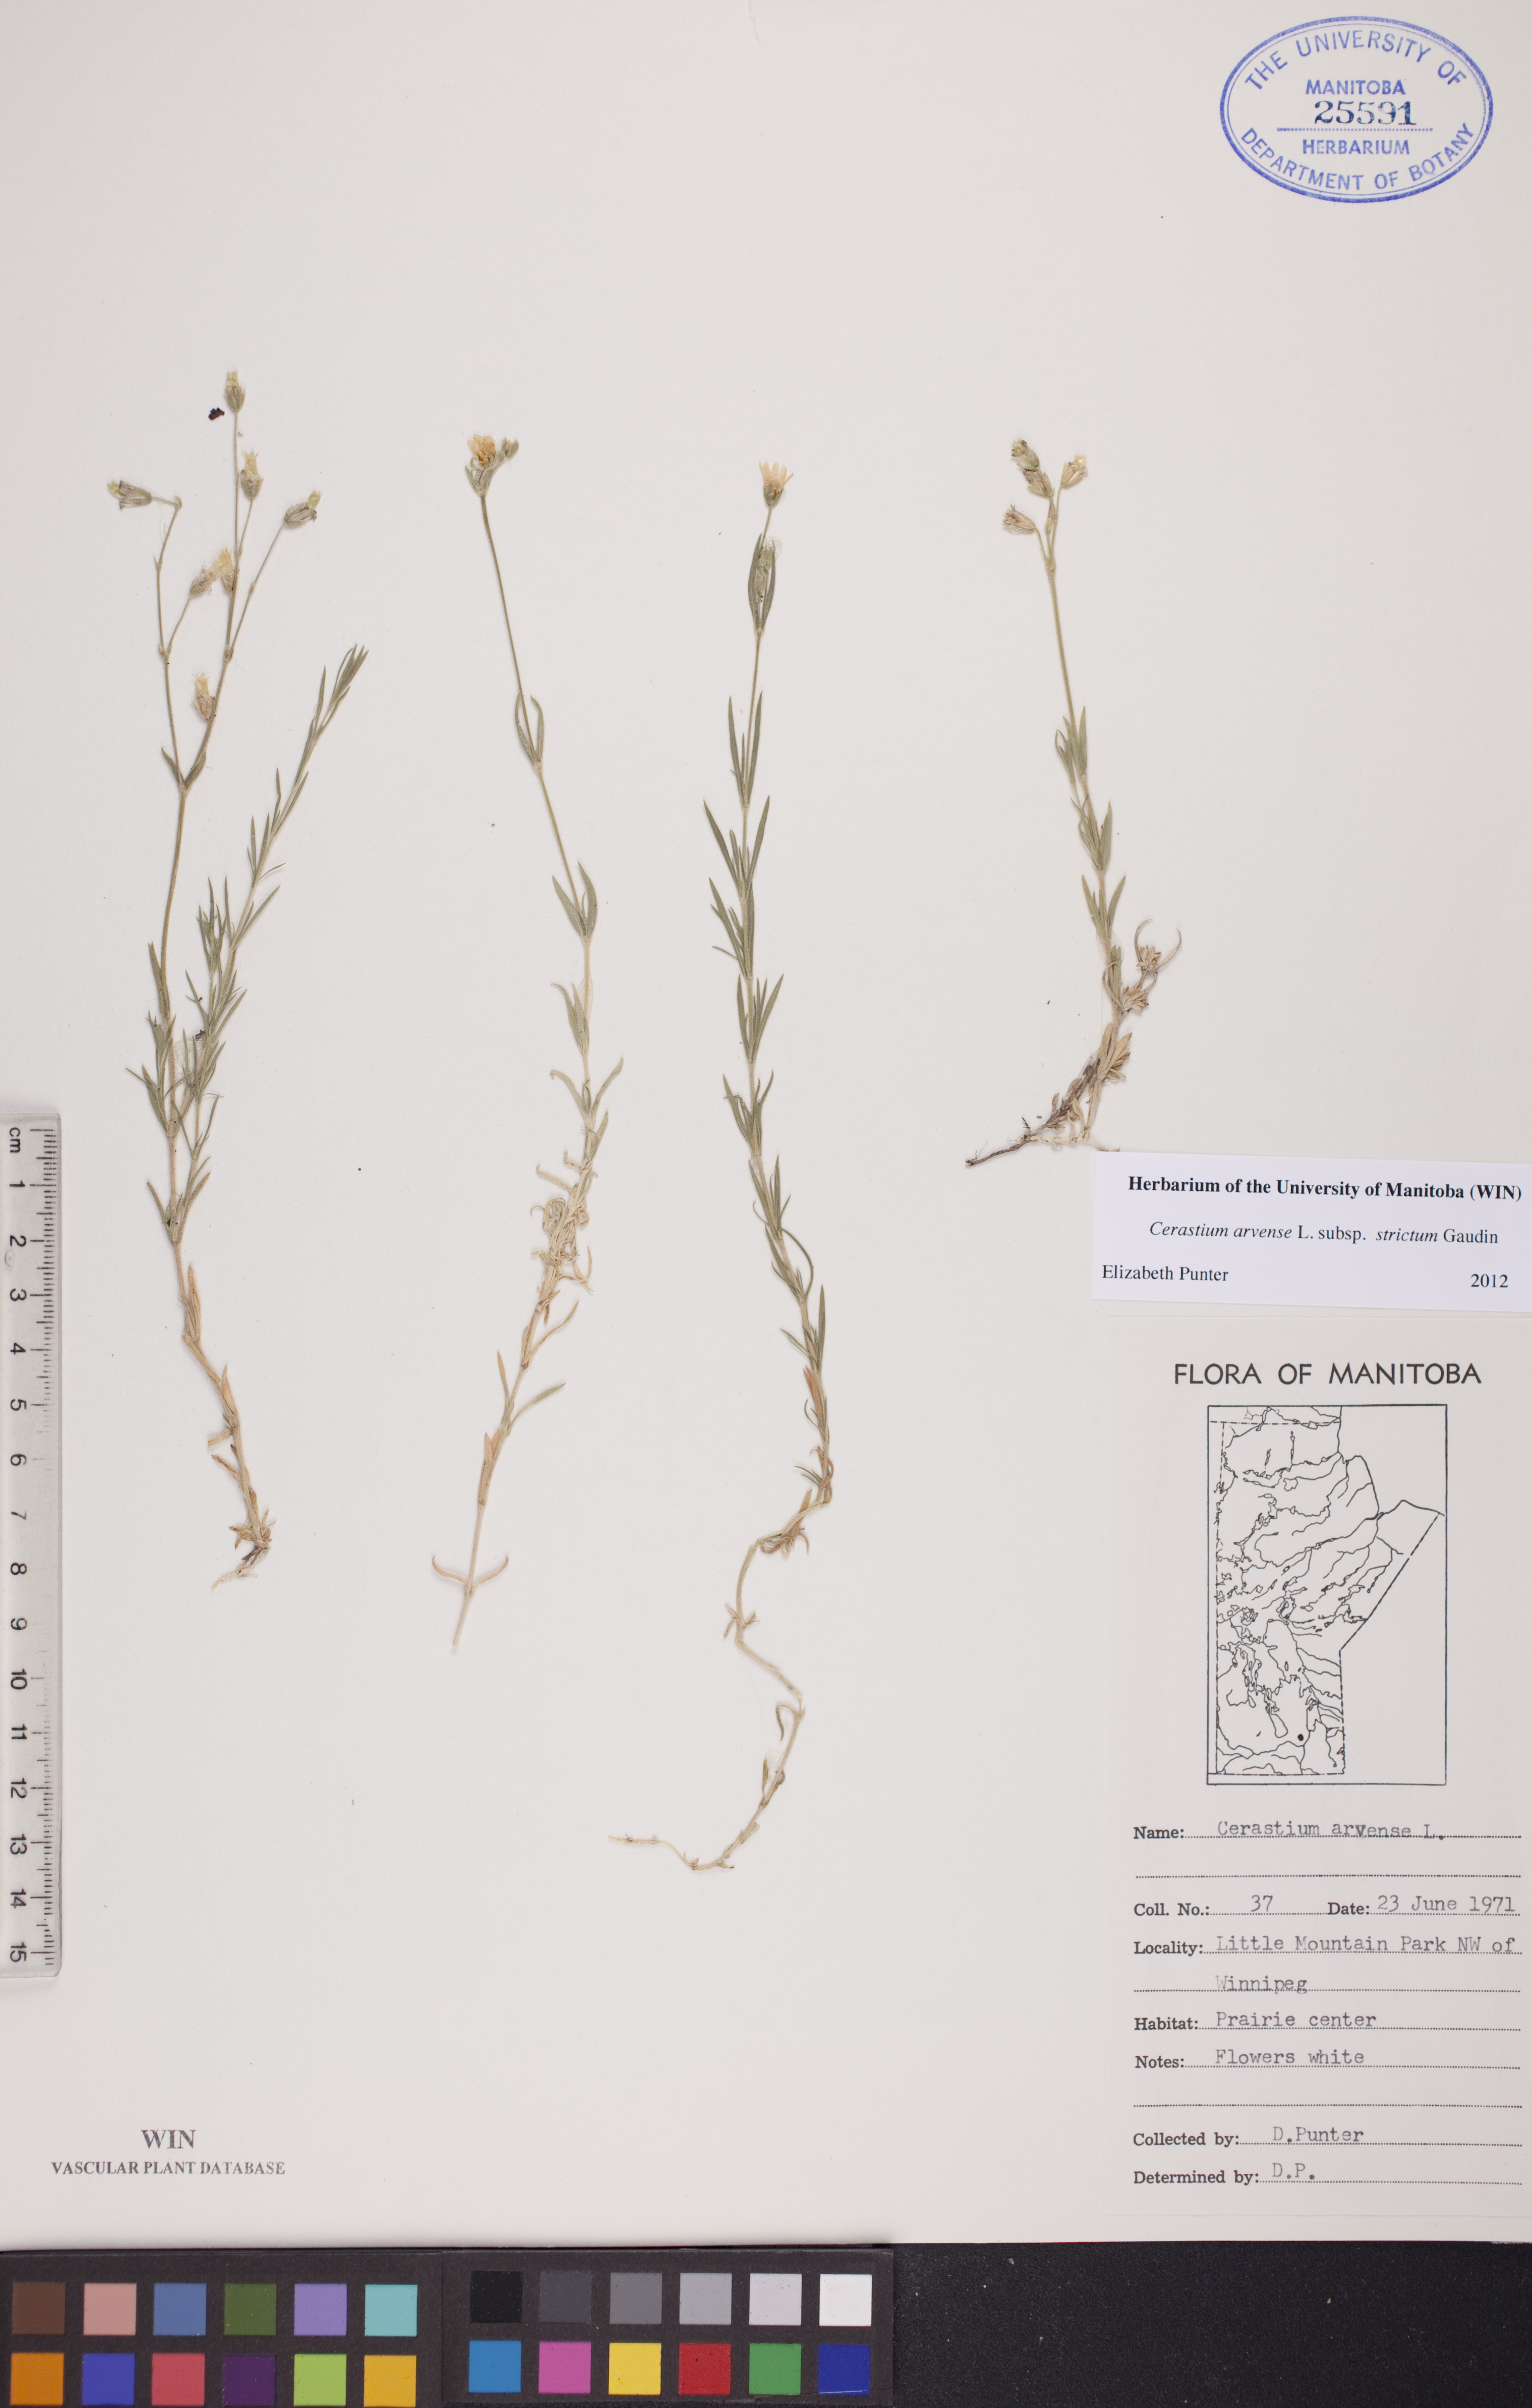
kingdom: Plantae
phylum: Tracheophyta
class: Magnoliopsida
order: Caryophyllales
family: Caryophyllaceae
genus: Cerastium
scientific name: Cerastium elongatum
